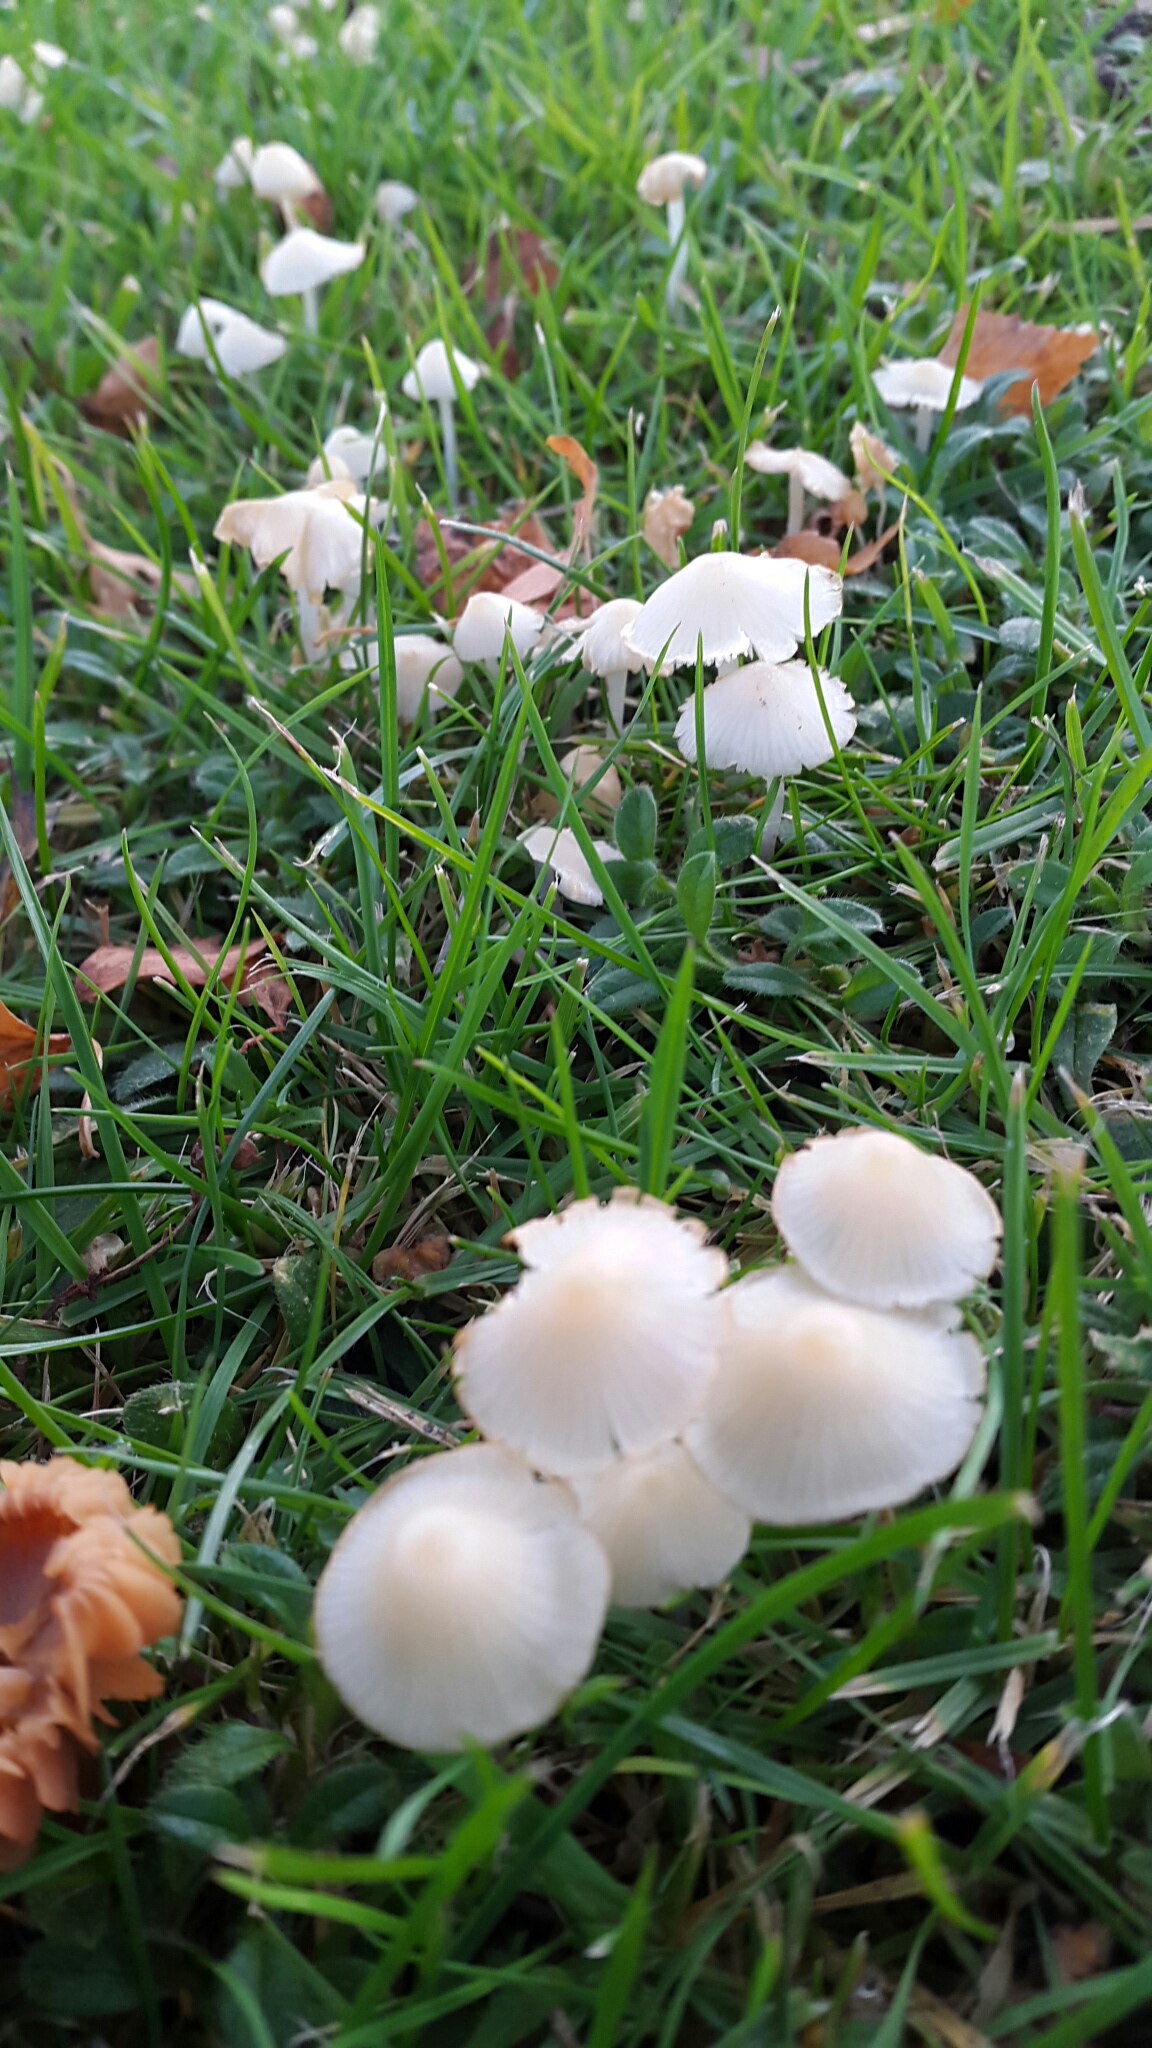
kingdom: Fungi
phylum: Basidiomycota
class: Agaricomycetes
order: Agaricales
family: Mycenaceae
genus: Atheniella
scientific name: Atheniella flavoalba
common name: gulhvid huesvamp
